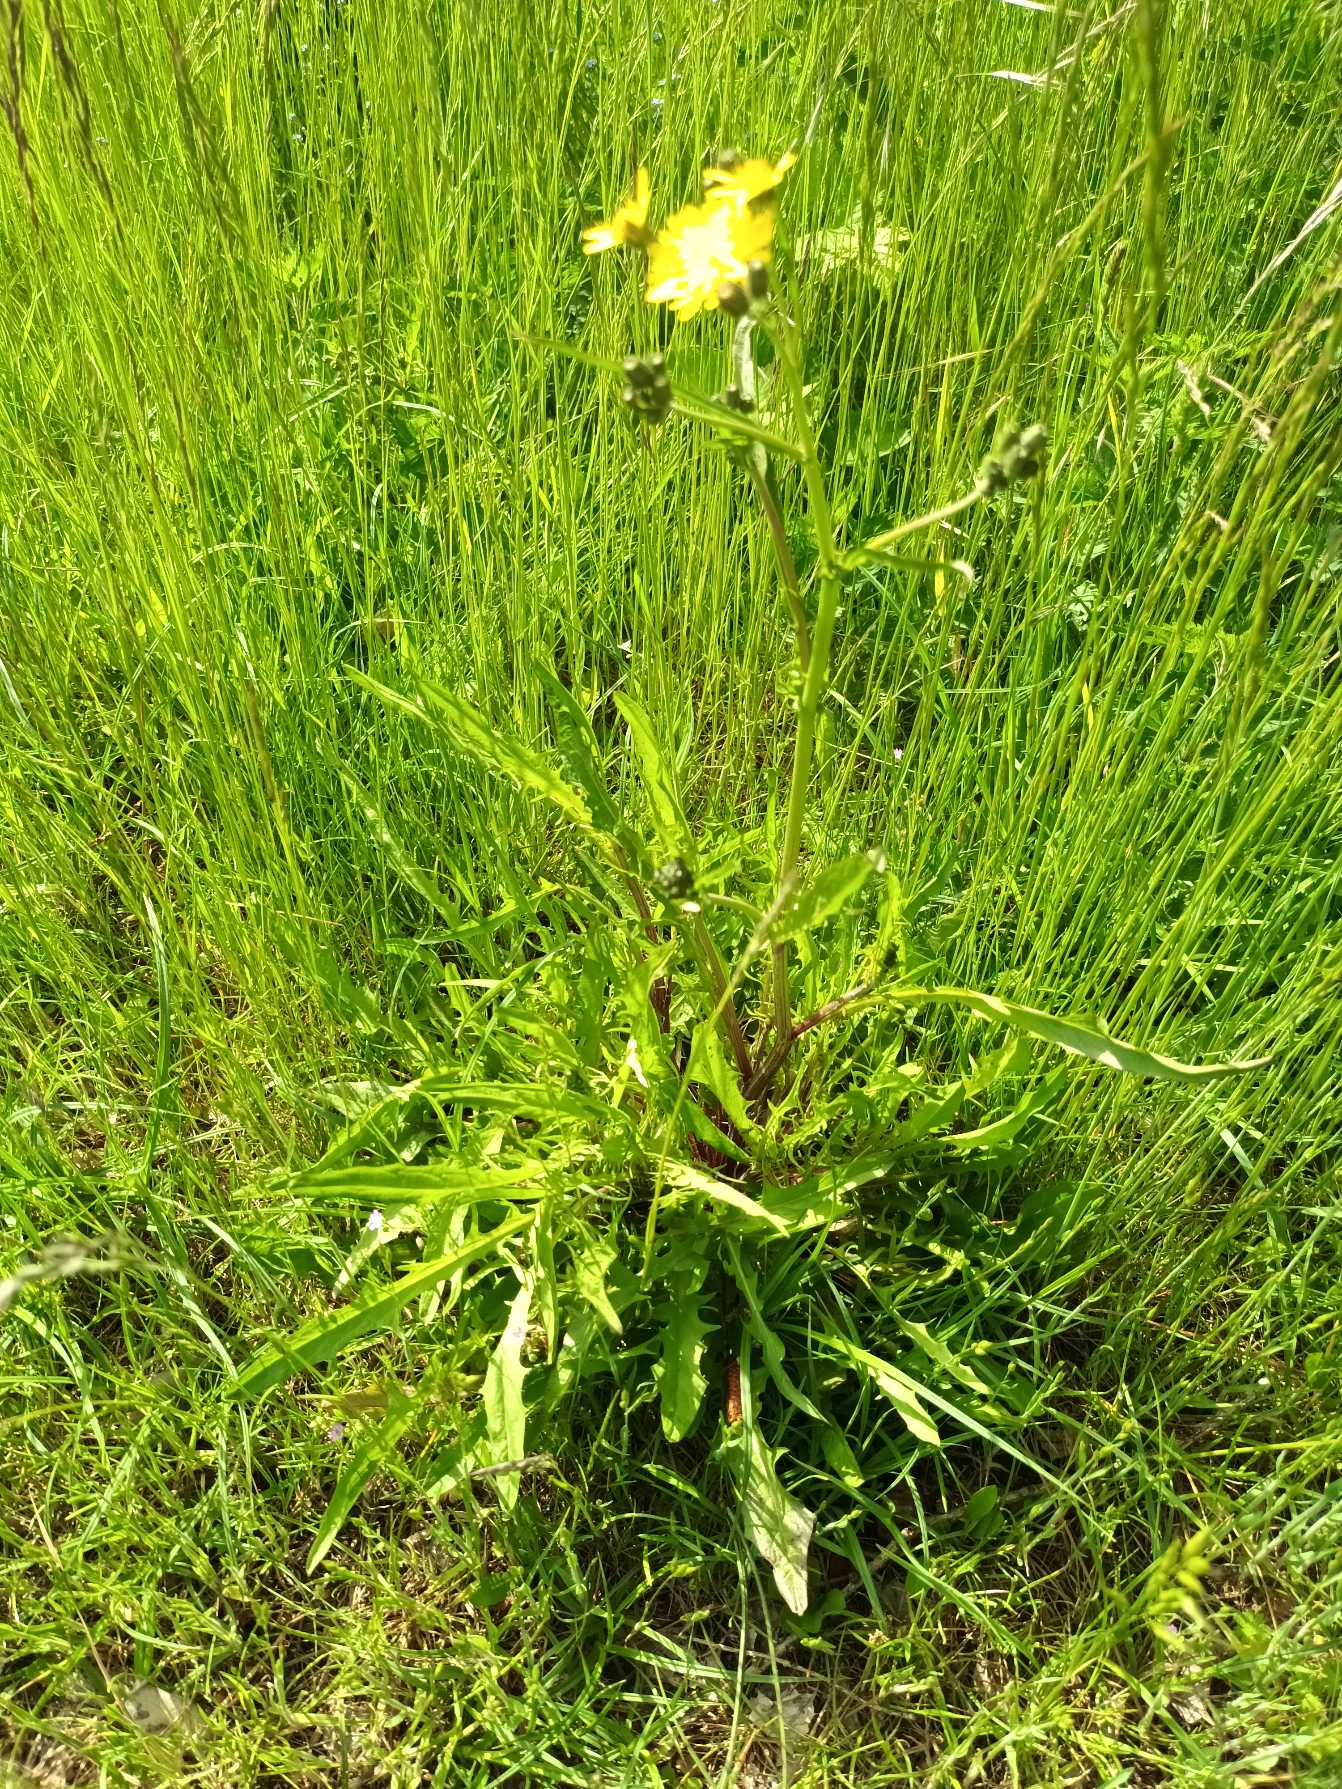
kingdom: Plantae
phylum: Tracheophyta
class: Magnoliopsida
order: Asterales
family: Asteraceae
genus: Crepis
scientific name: Crepis capillaris
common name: Grøn høgeskæg
